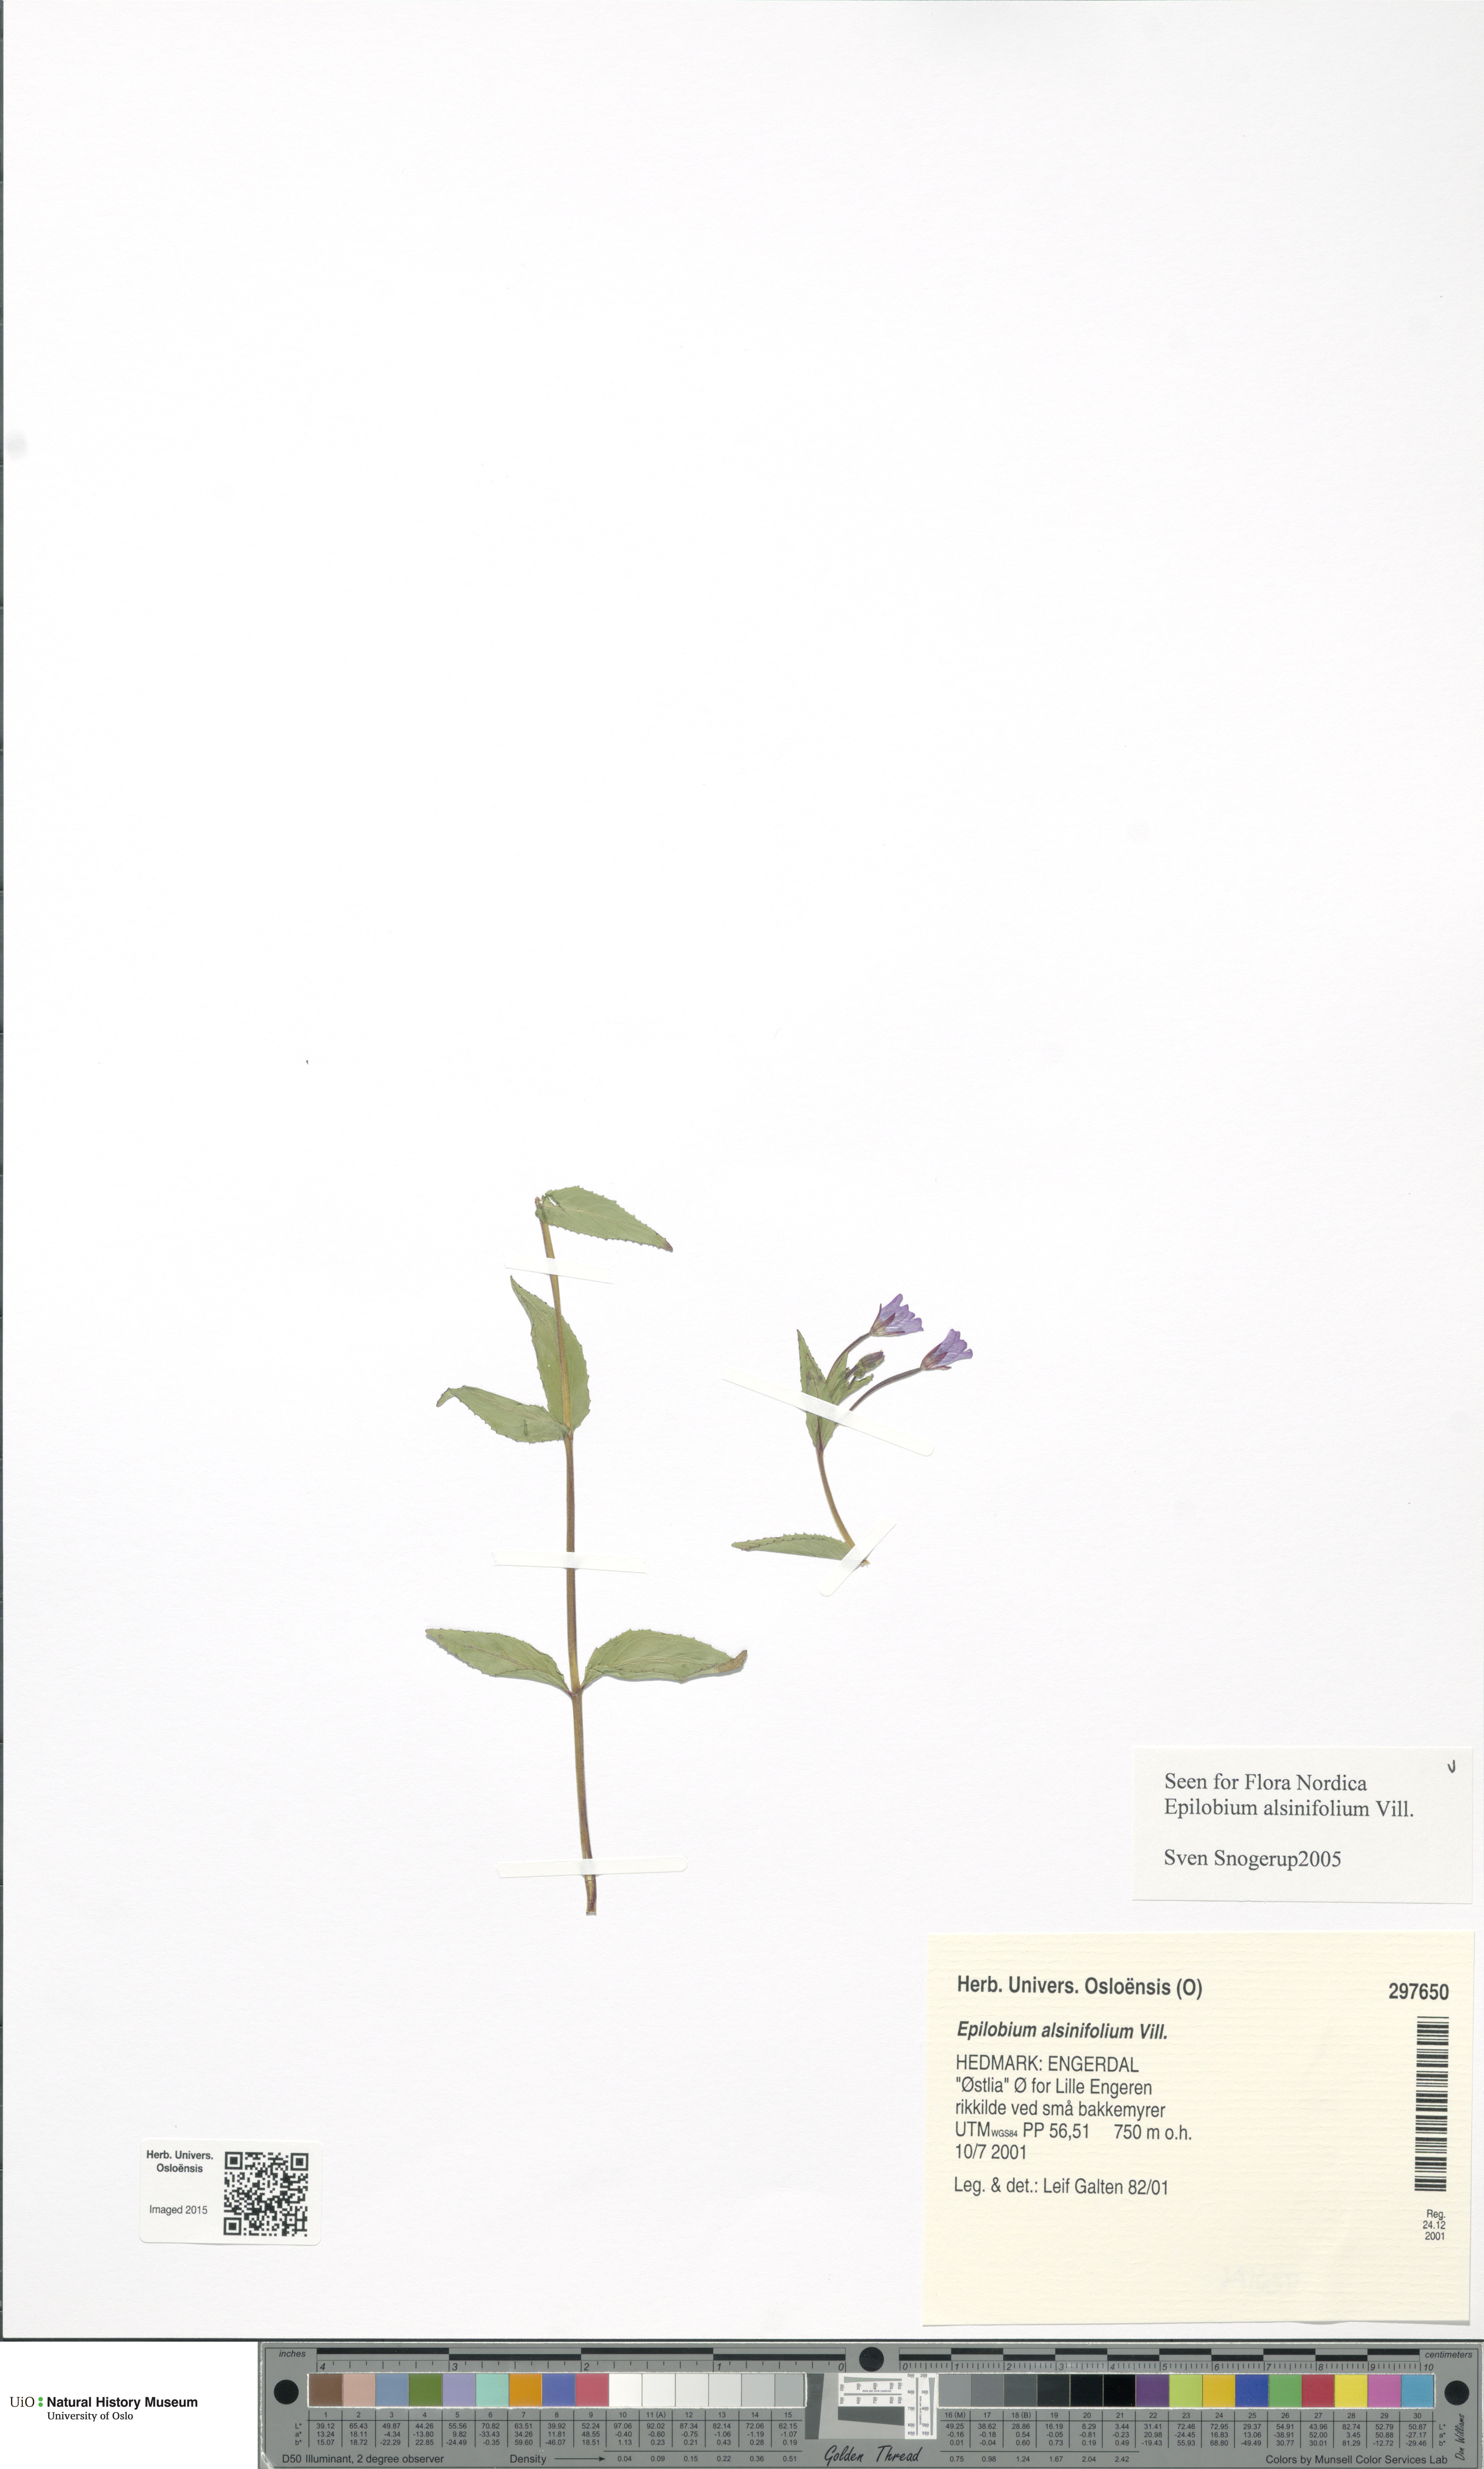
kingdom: Plantae
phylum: Tracheophyta
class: Magnoliopsida
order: Myrtales
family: Onagraceae
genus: Epilobium
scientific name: Epilobium alsinifolium
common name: Chickweed willowherb
